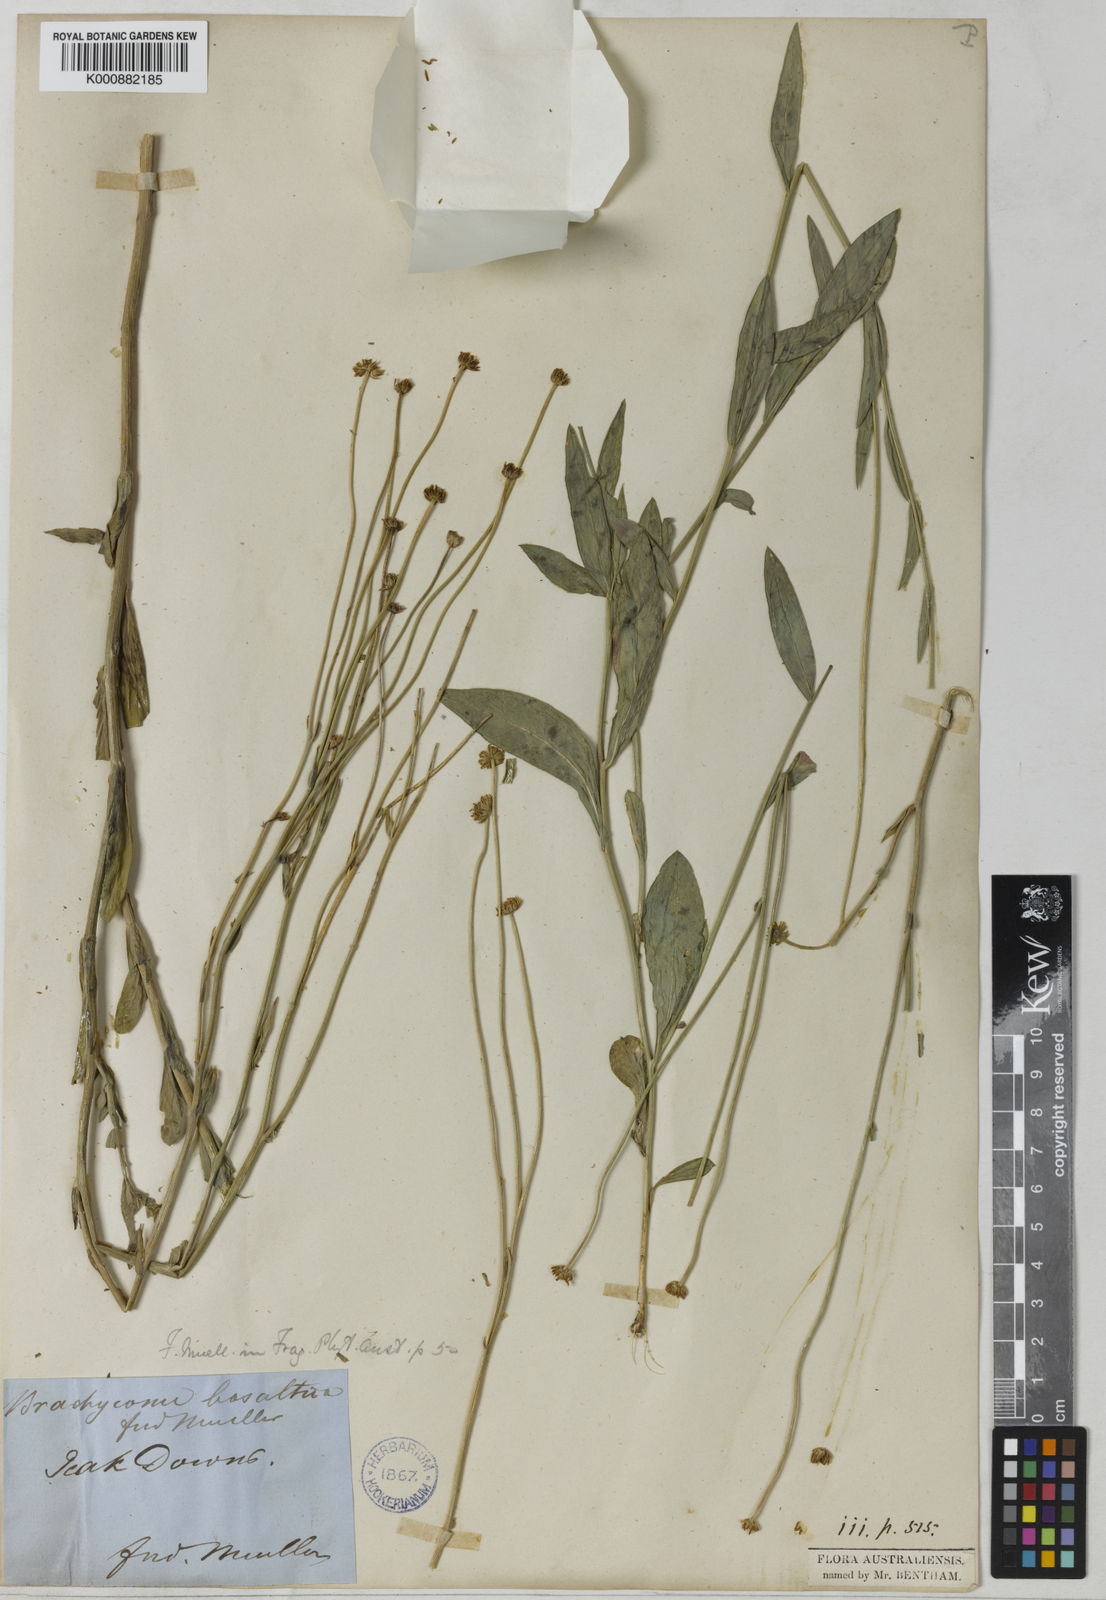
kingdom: Plantae
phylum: Tracheophyta
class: Magnoliopsida
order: Asterales
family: Asteraceae
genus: Brachyscome
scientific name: Brachyscome basaltica
